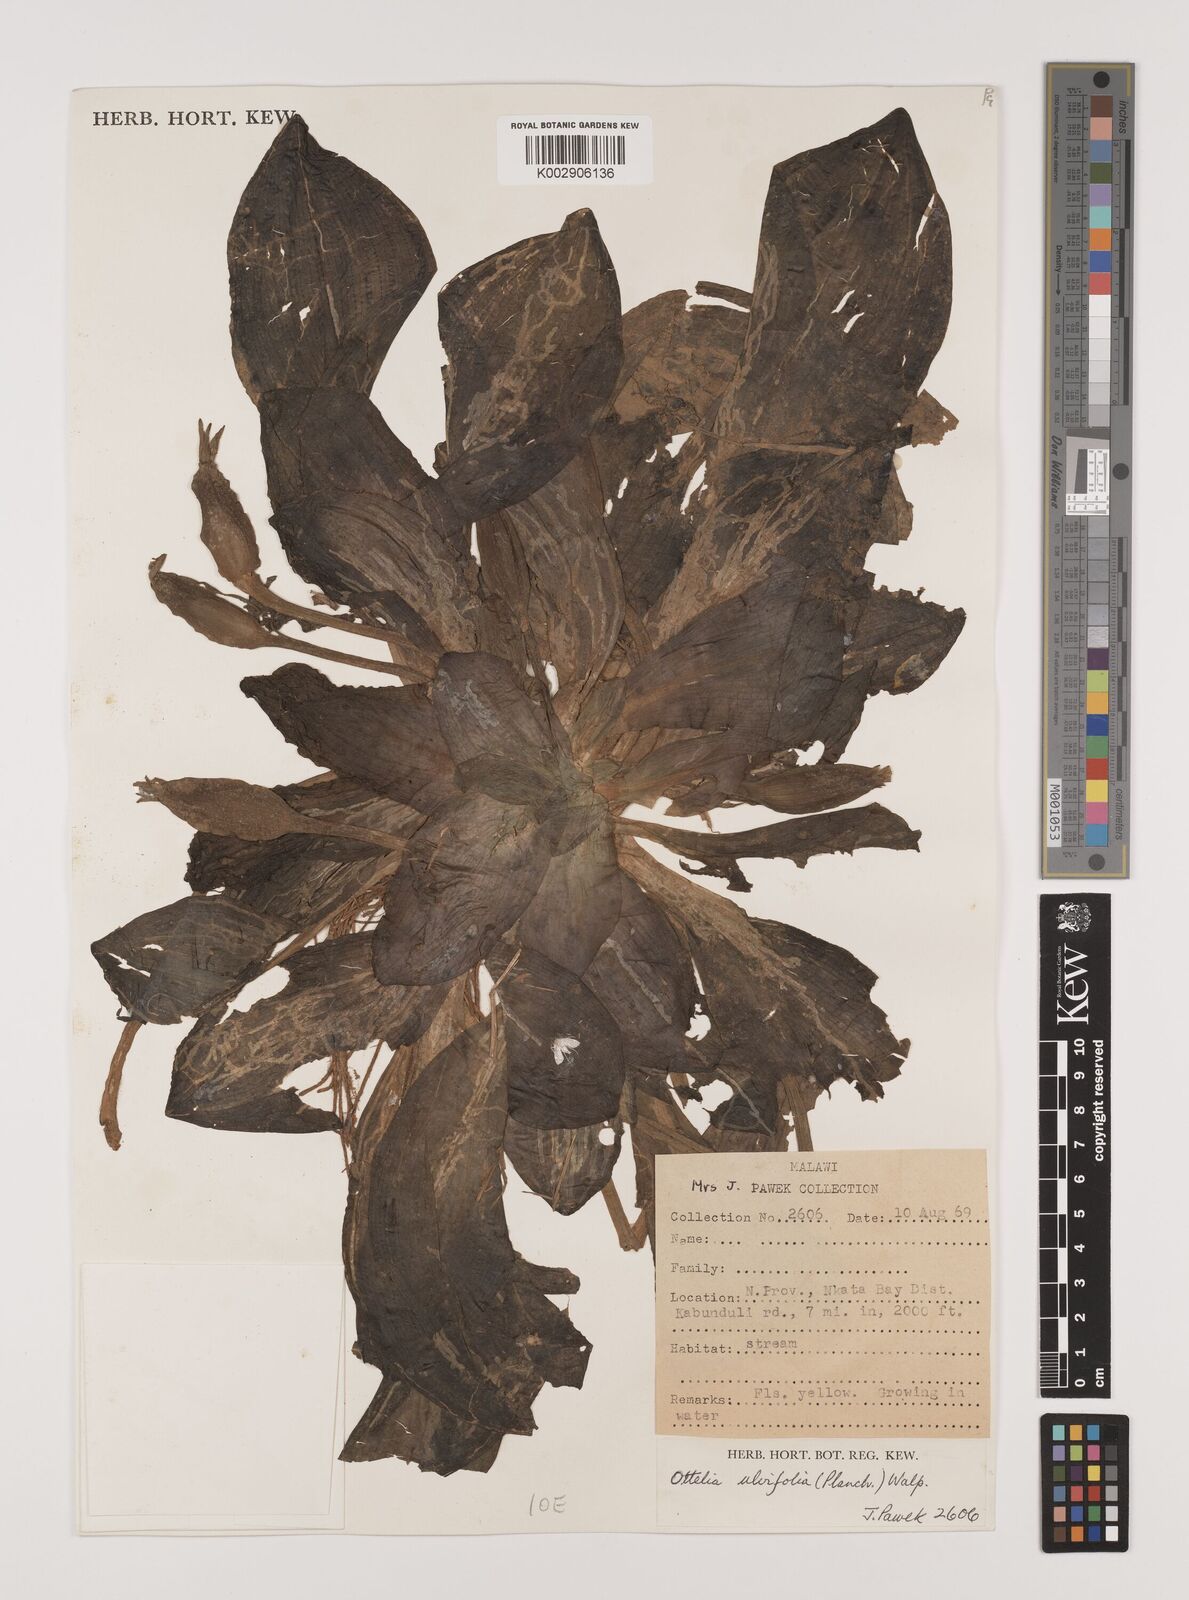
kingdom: Plantae
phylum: Tracheophyta
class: Liliopsida
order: Alismatales
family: Hydrocharitaceae
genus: Ottelia
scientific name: Ottelia ulvifolia
